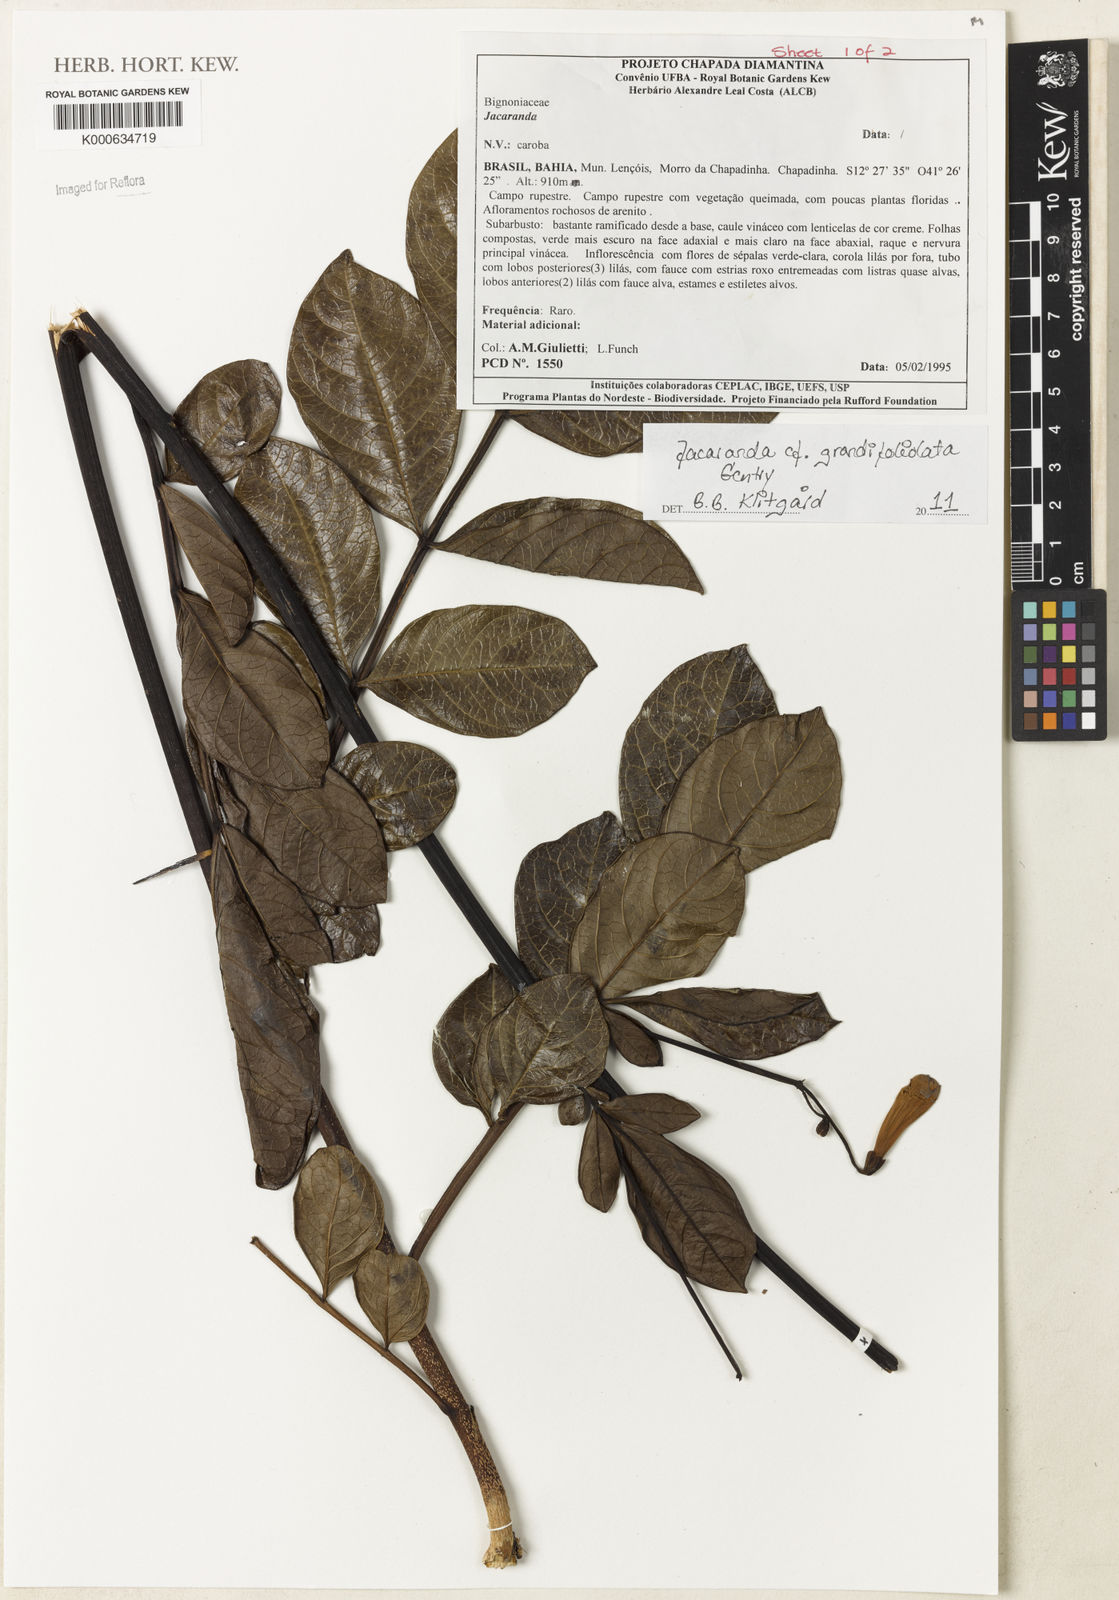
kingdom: Plantae
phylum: Tracheophyta
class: Magnoliopsida
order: Lamiales
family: Bignoniaceae
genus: Jacaranda
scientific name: Jacaranda grandifoliolata
